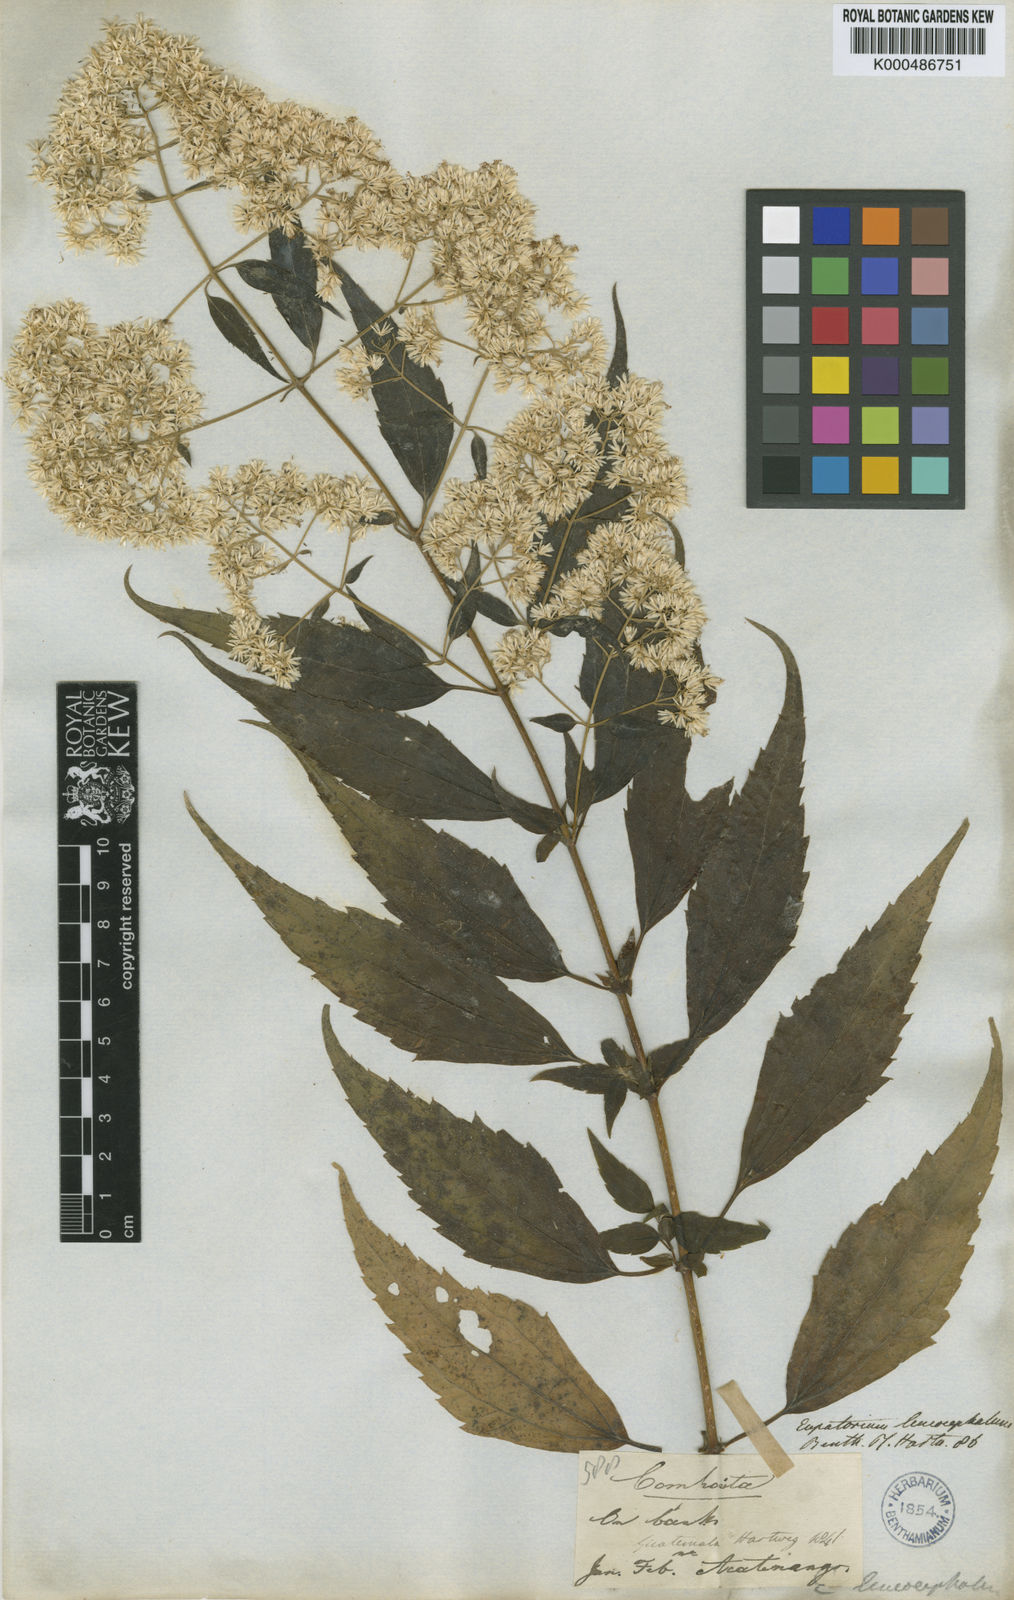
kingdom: Plantae
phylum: Tracheophyta
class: Magnoliopsida
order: Asterales
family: Asteraceae
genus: Fleischmanniopsis
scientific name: Fleischmanniopsis leucocephala
